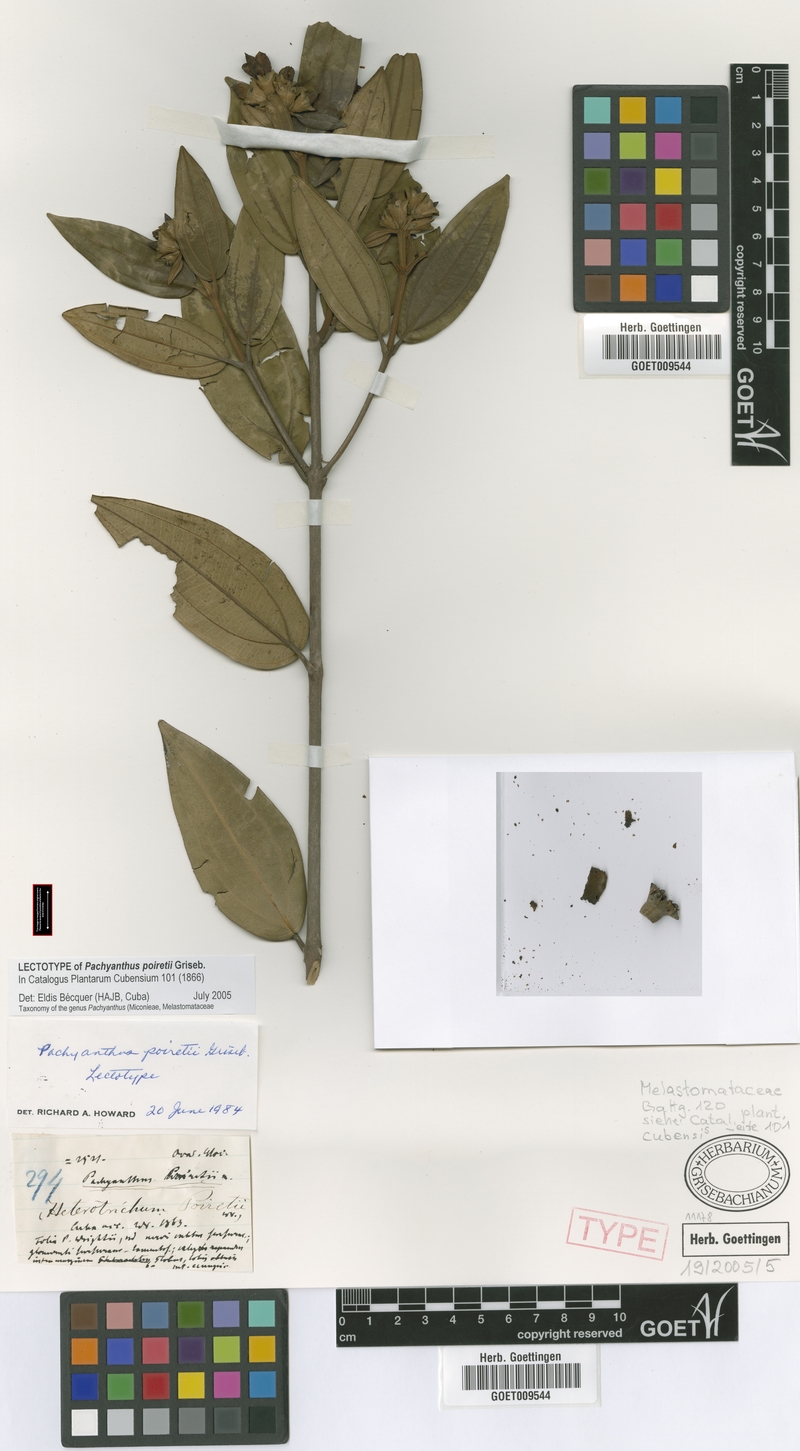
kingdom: Plantae
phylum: Tracheophyta
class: Magnoliopsida
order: Myrtales
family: Melastomataceae
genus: Miconia
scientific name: Miconia poiretii
